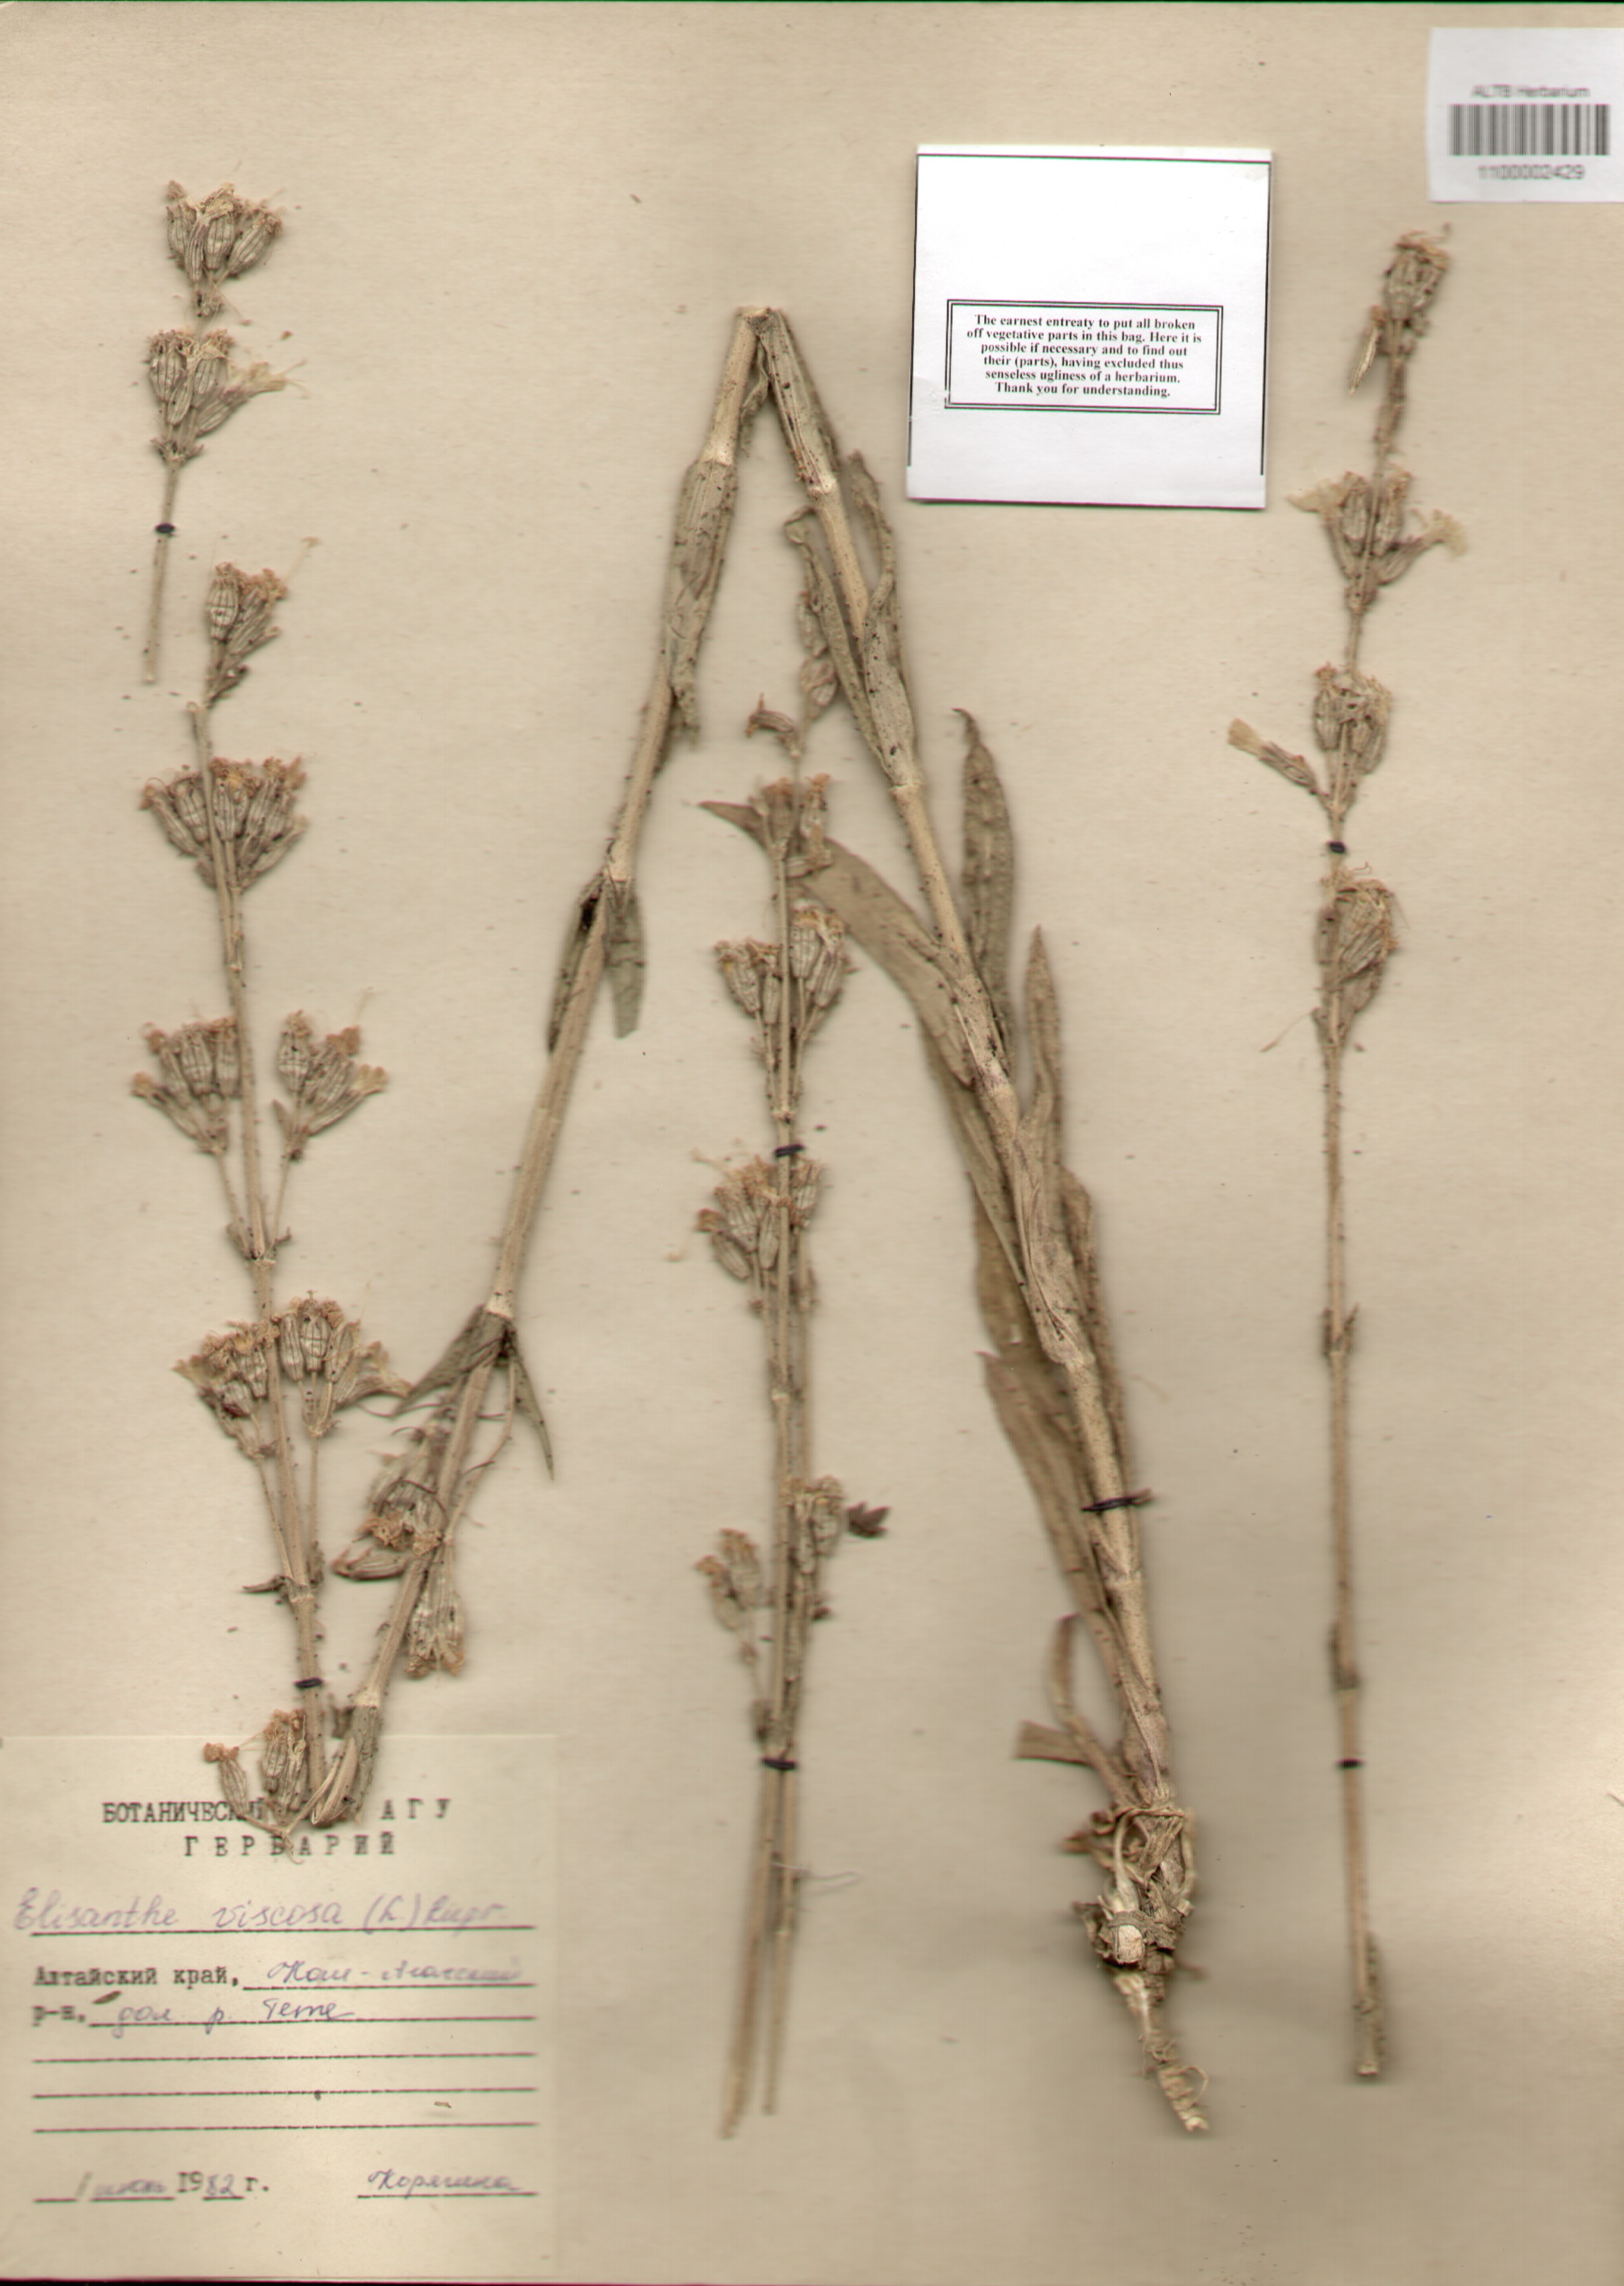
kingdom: Plantae
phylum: Tracheophyta
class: Magnoliopsida
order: Caryophyllales
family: Caryophyllaceae
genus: Silene
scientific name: Silene viscosa
